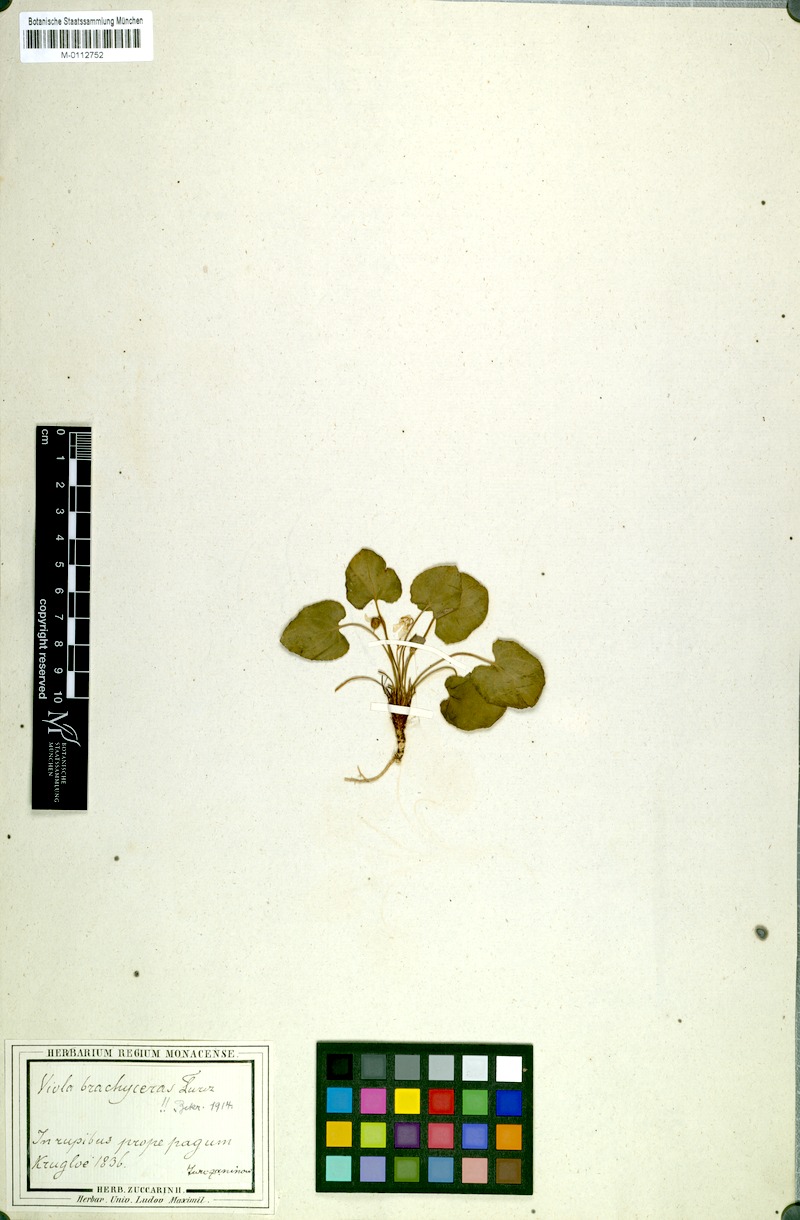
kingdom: Plantae
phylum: Tracheophyta
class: Magnoliopsida
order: Malpighiales
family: Violaceae
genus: Viola
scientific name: Viola epipsila
